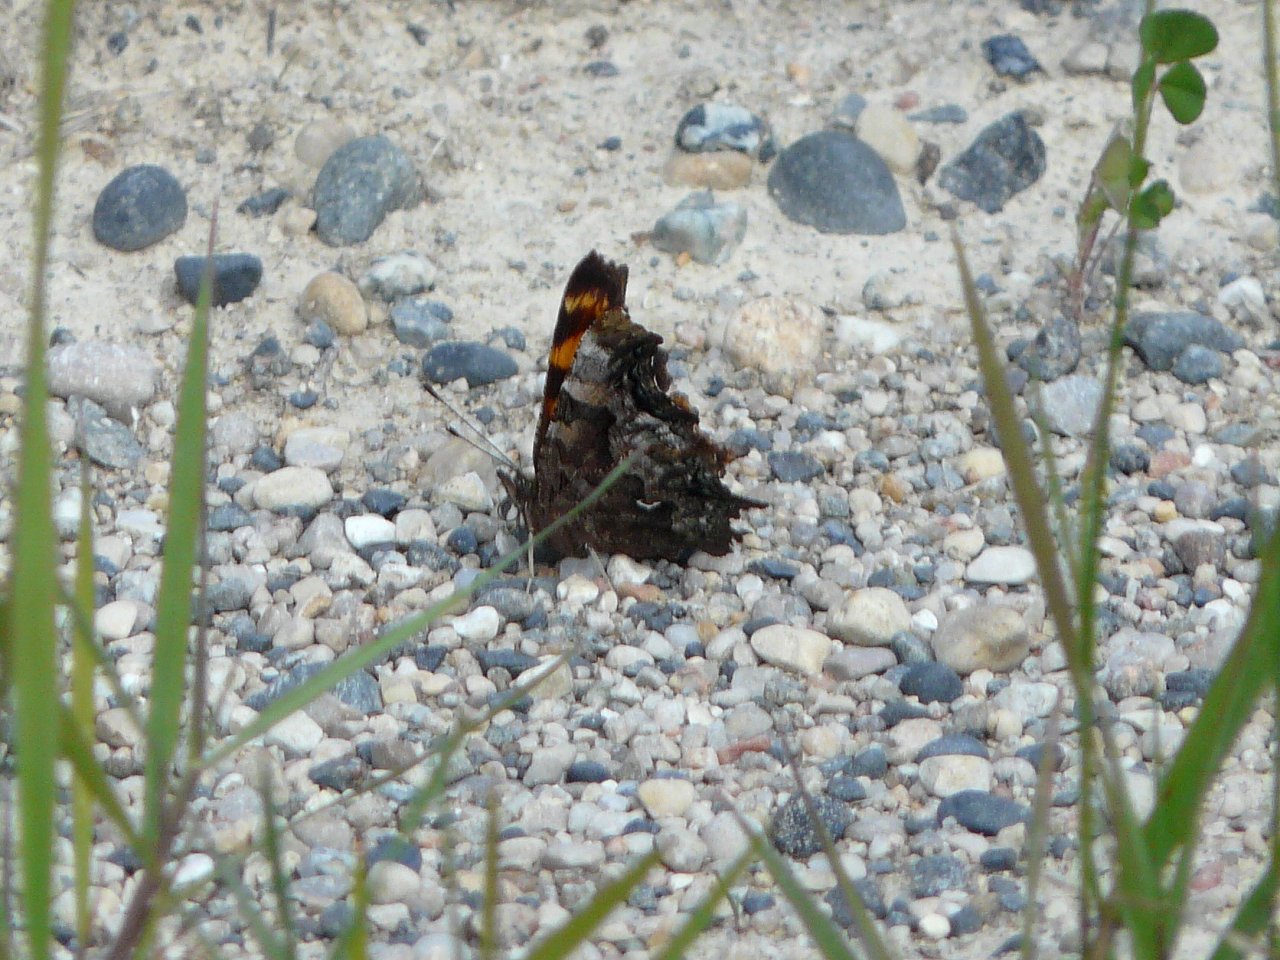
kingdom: Animalia
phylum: Arthropoda
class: Insecta
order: Lepidoptera
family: Nymphalidae
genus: Polygonia
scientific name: Polygonia faunus
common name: Green Comma
